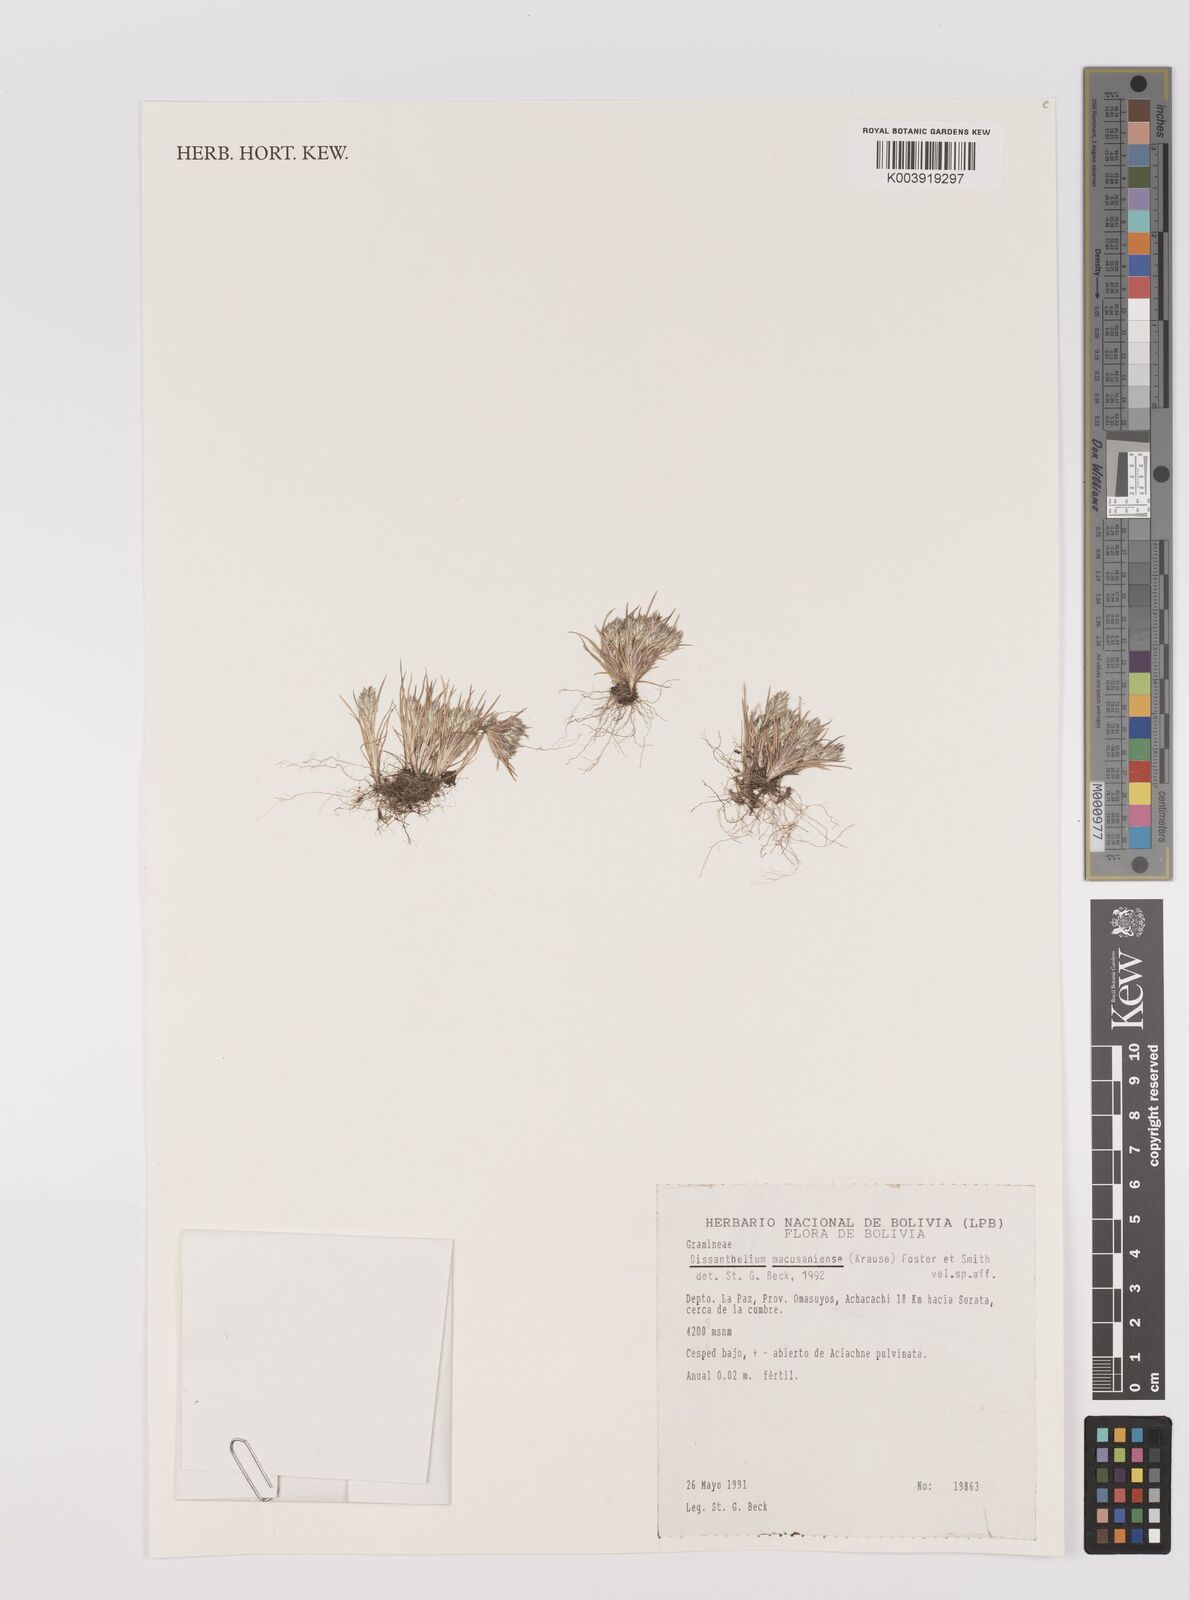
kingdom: Plantae
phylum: Tracheophyta
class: Liliopsida
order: Poales
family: Poaceae
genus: Poa
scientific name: Poa macusaniensis
